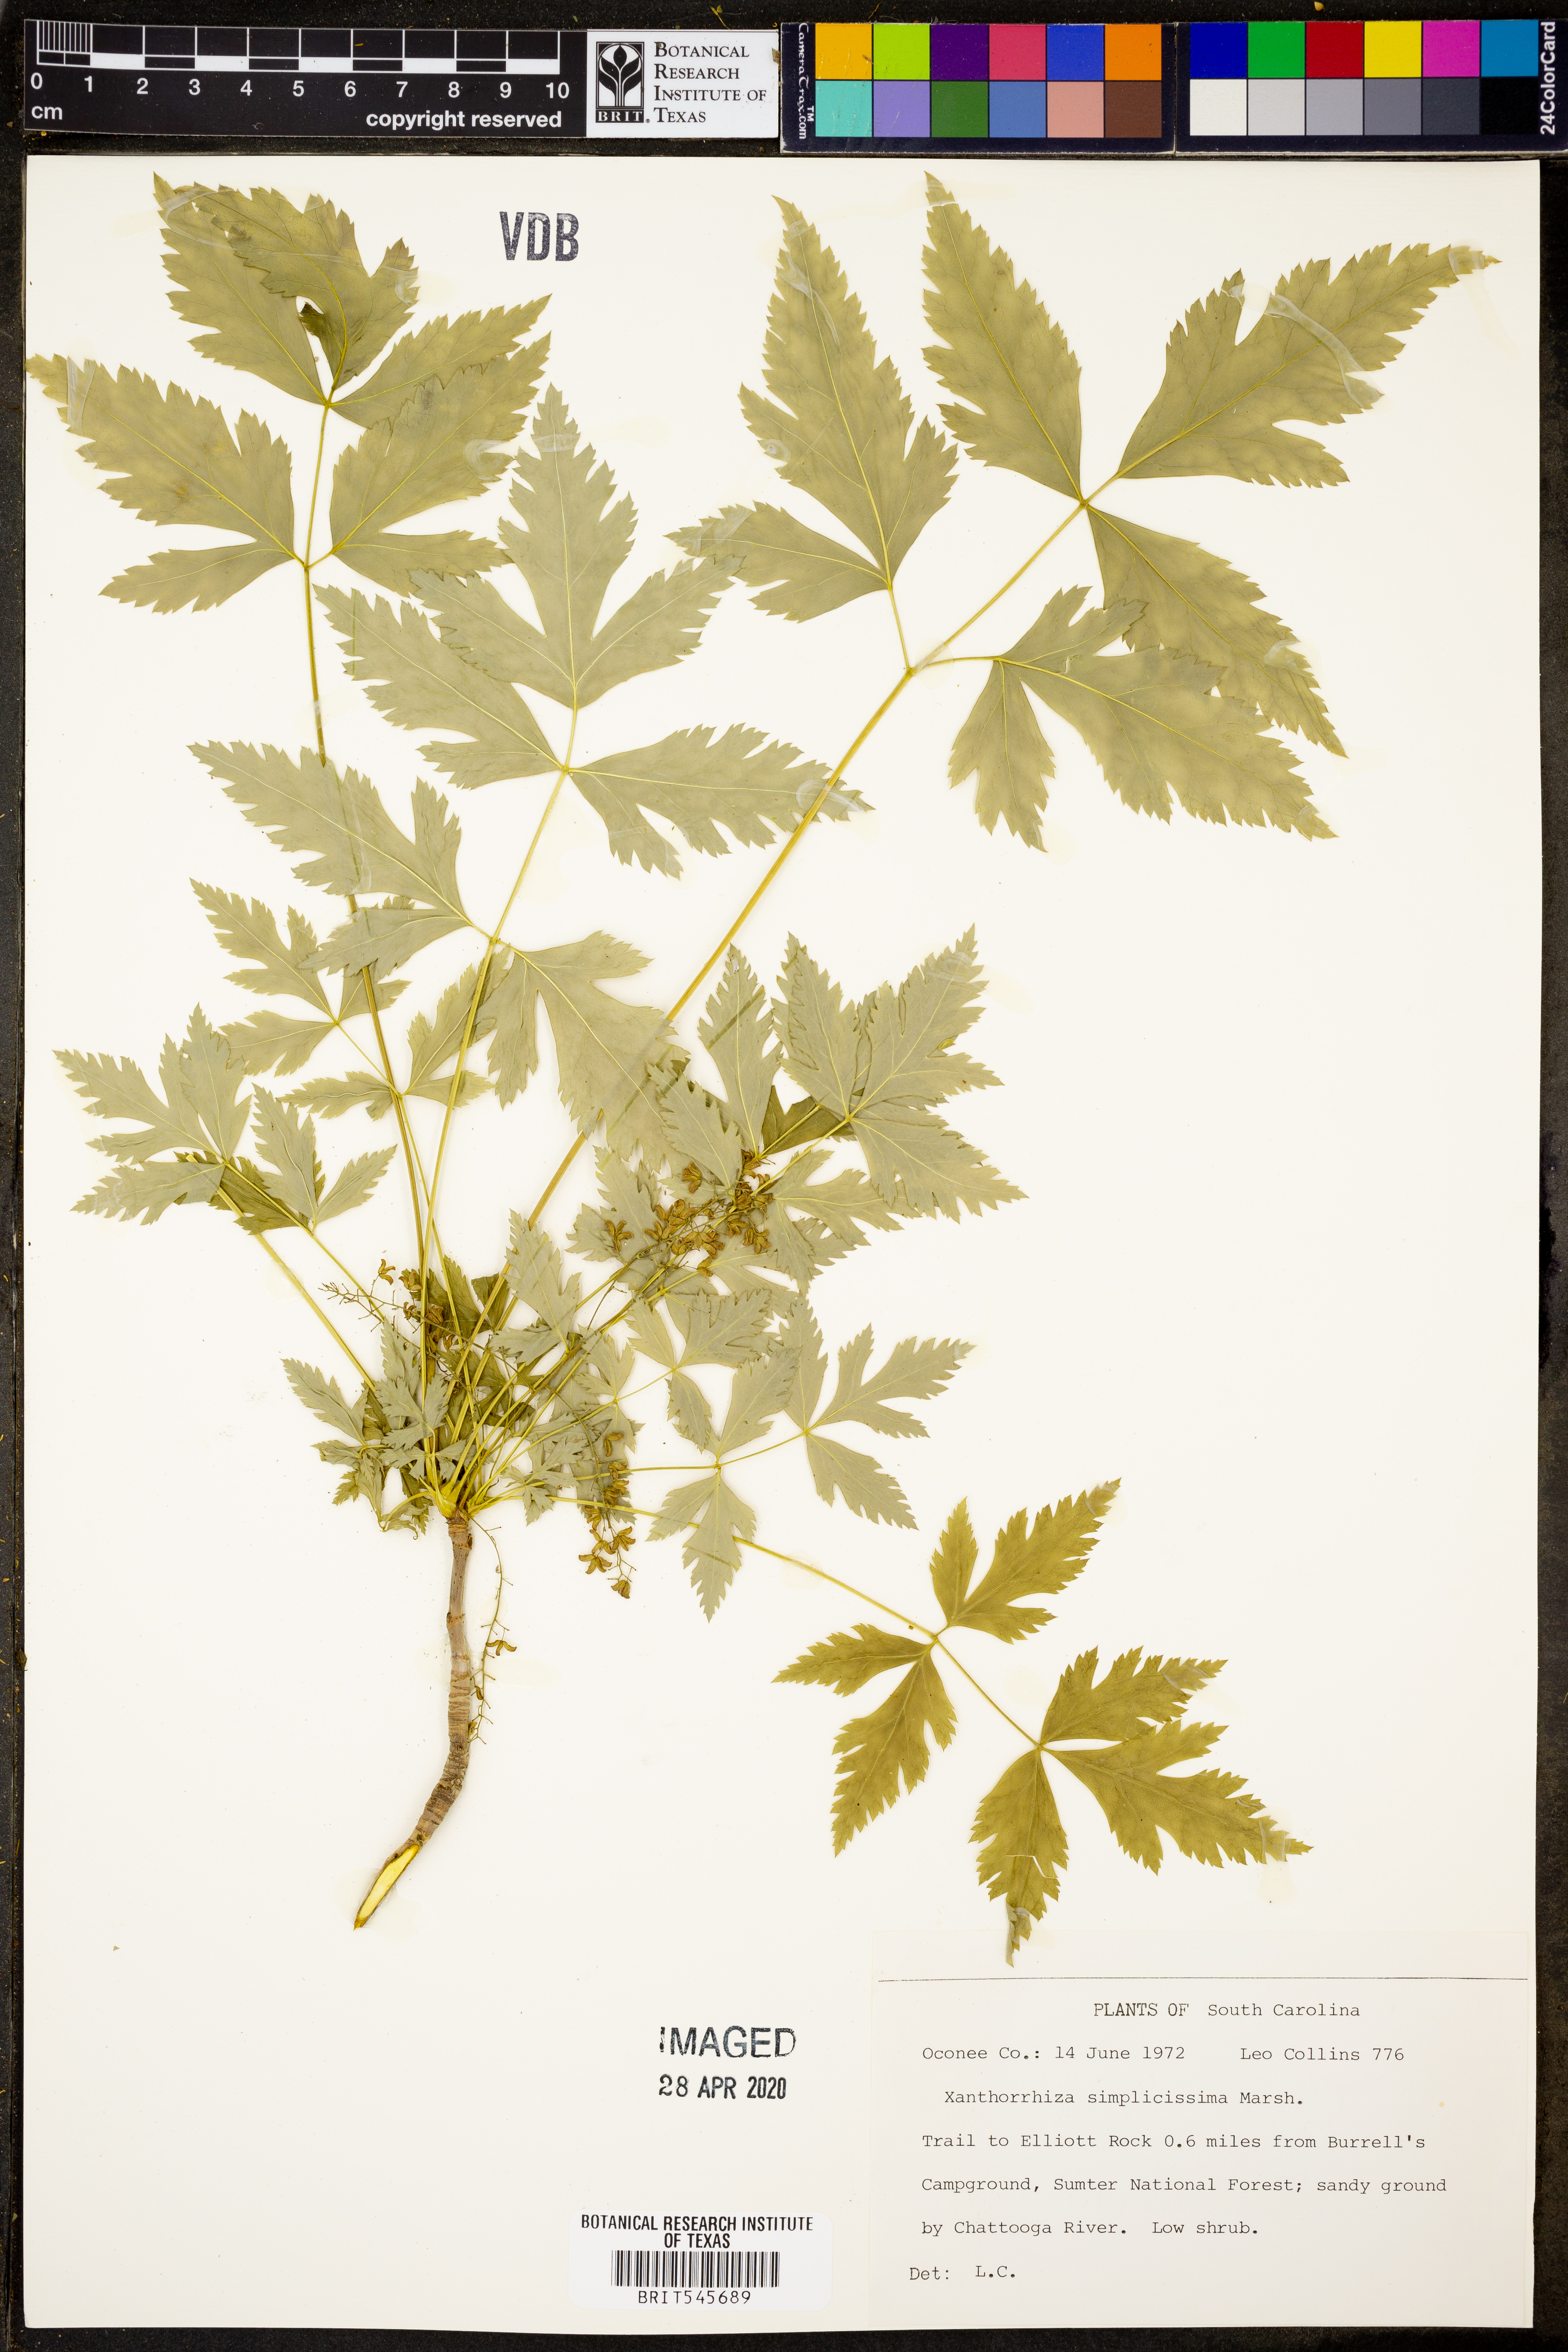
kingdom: Plantae
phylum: Tracheophyta
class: Magnoliopsida
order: Ranunculales
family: Ranunculaceae
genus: Xanthorhiza
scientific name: Xanthorhiza simplicissima
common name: Yellowroot
